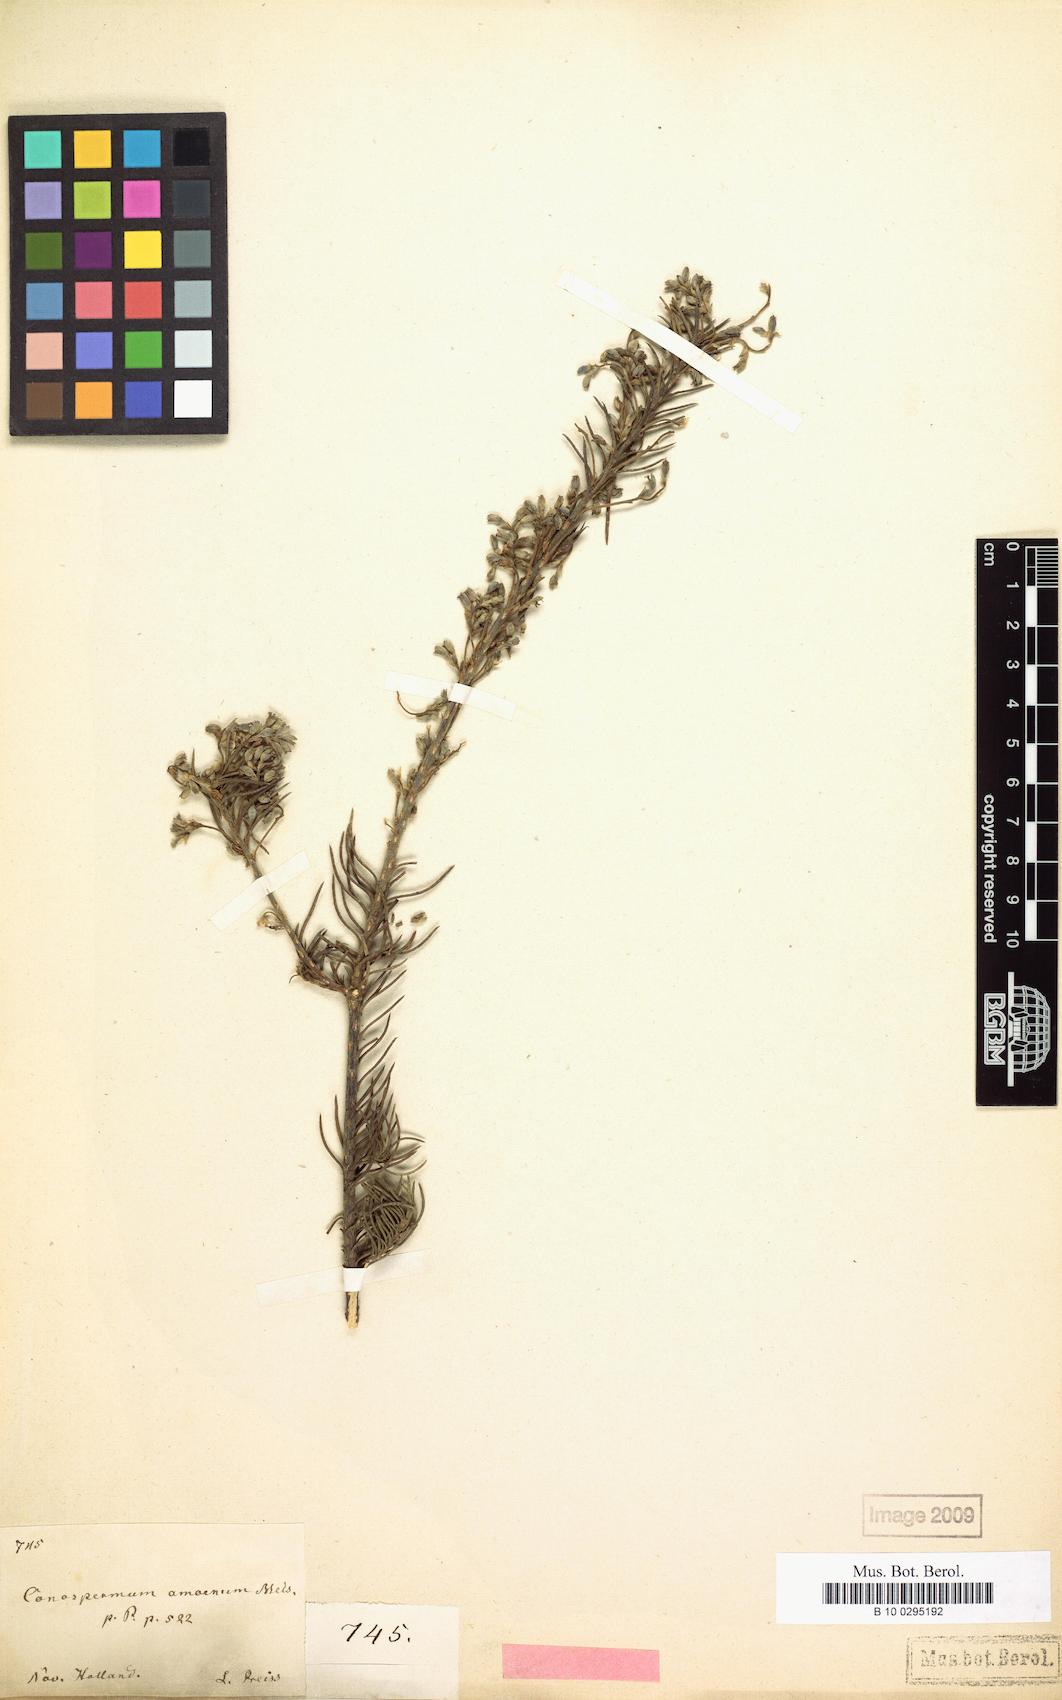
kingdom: Plantae
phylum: Tracheophyta
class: Magnoliopsida
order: Proteales
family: Proteaceae
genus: Conospermum
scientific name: Conospermum amoenum
